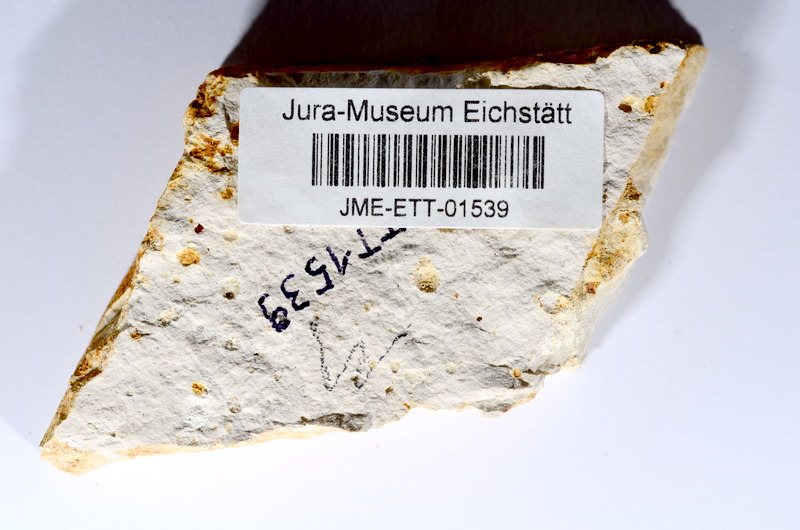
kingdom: Animalia
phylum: Chordata
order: Salmoniformes
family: Orthogonikleithridae
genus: Orthogonikleithrus
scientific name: Orthogonikleithrus hoelli
